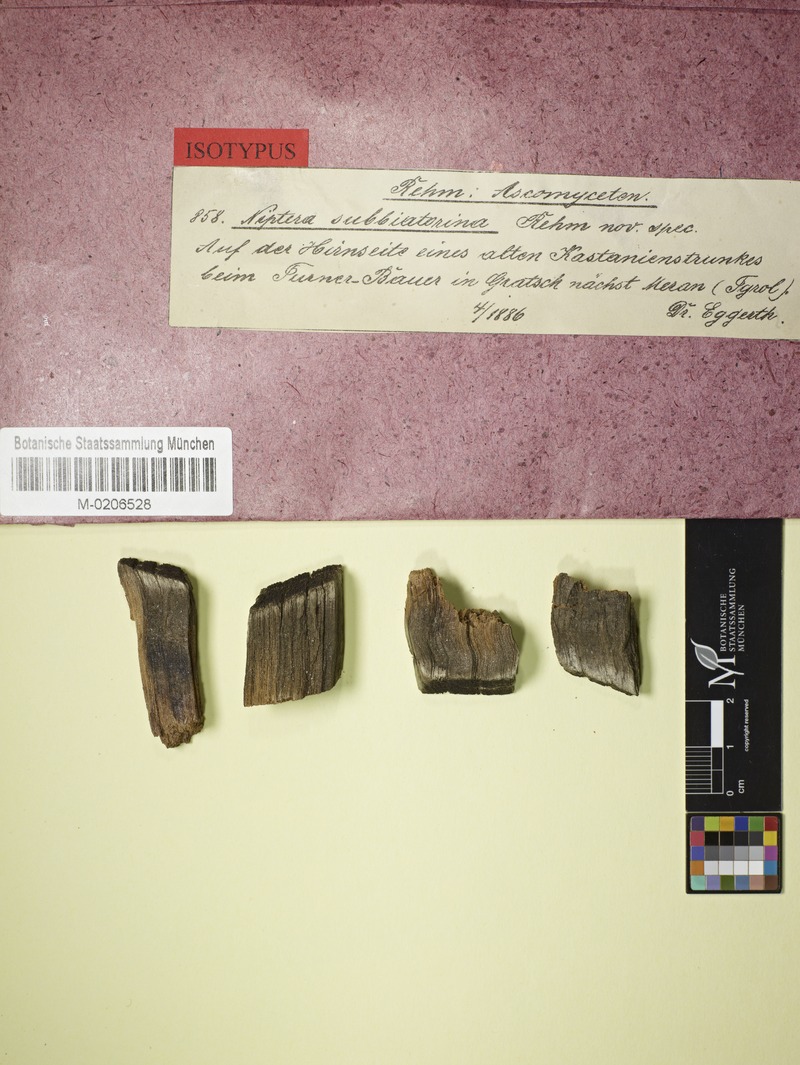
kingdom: Fungi
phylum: Ascomycota
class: Leotiomycetes
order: Helotiales
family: Mollisiaceae
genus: Niptera
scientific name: Niptera subbiatorina
